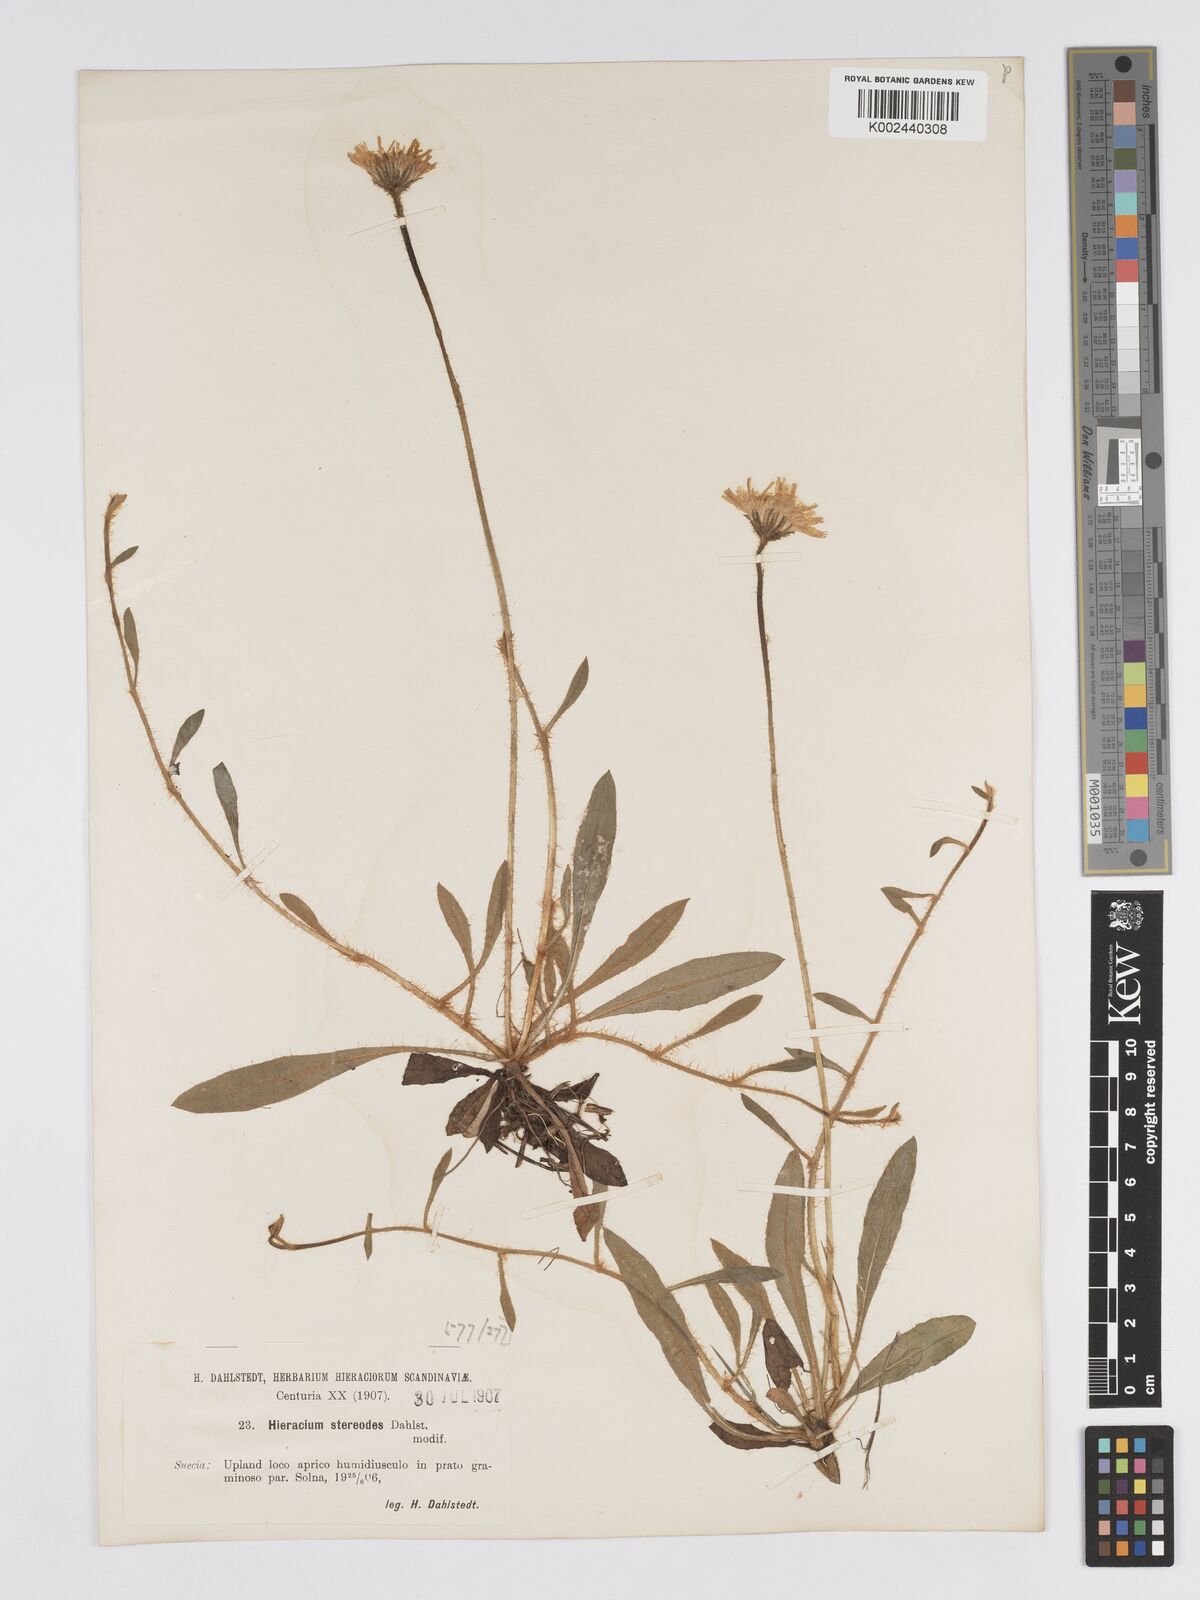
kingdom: Plantae
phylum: Tracheophyta
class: Magnoliopsida
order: Asterales
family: Asteraceae
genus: Pilosella
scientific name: Pilosella officinarum
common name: Mouse-ear hawkweed
